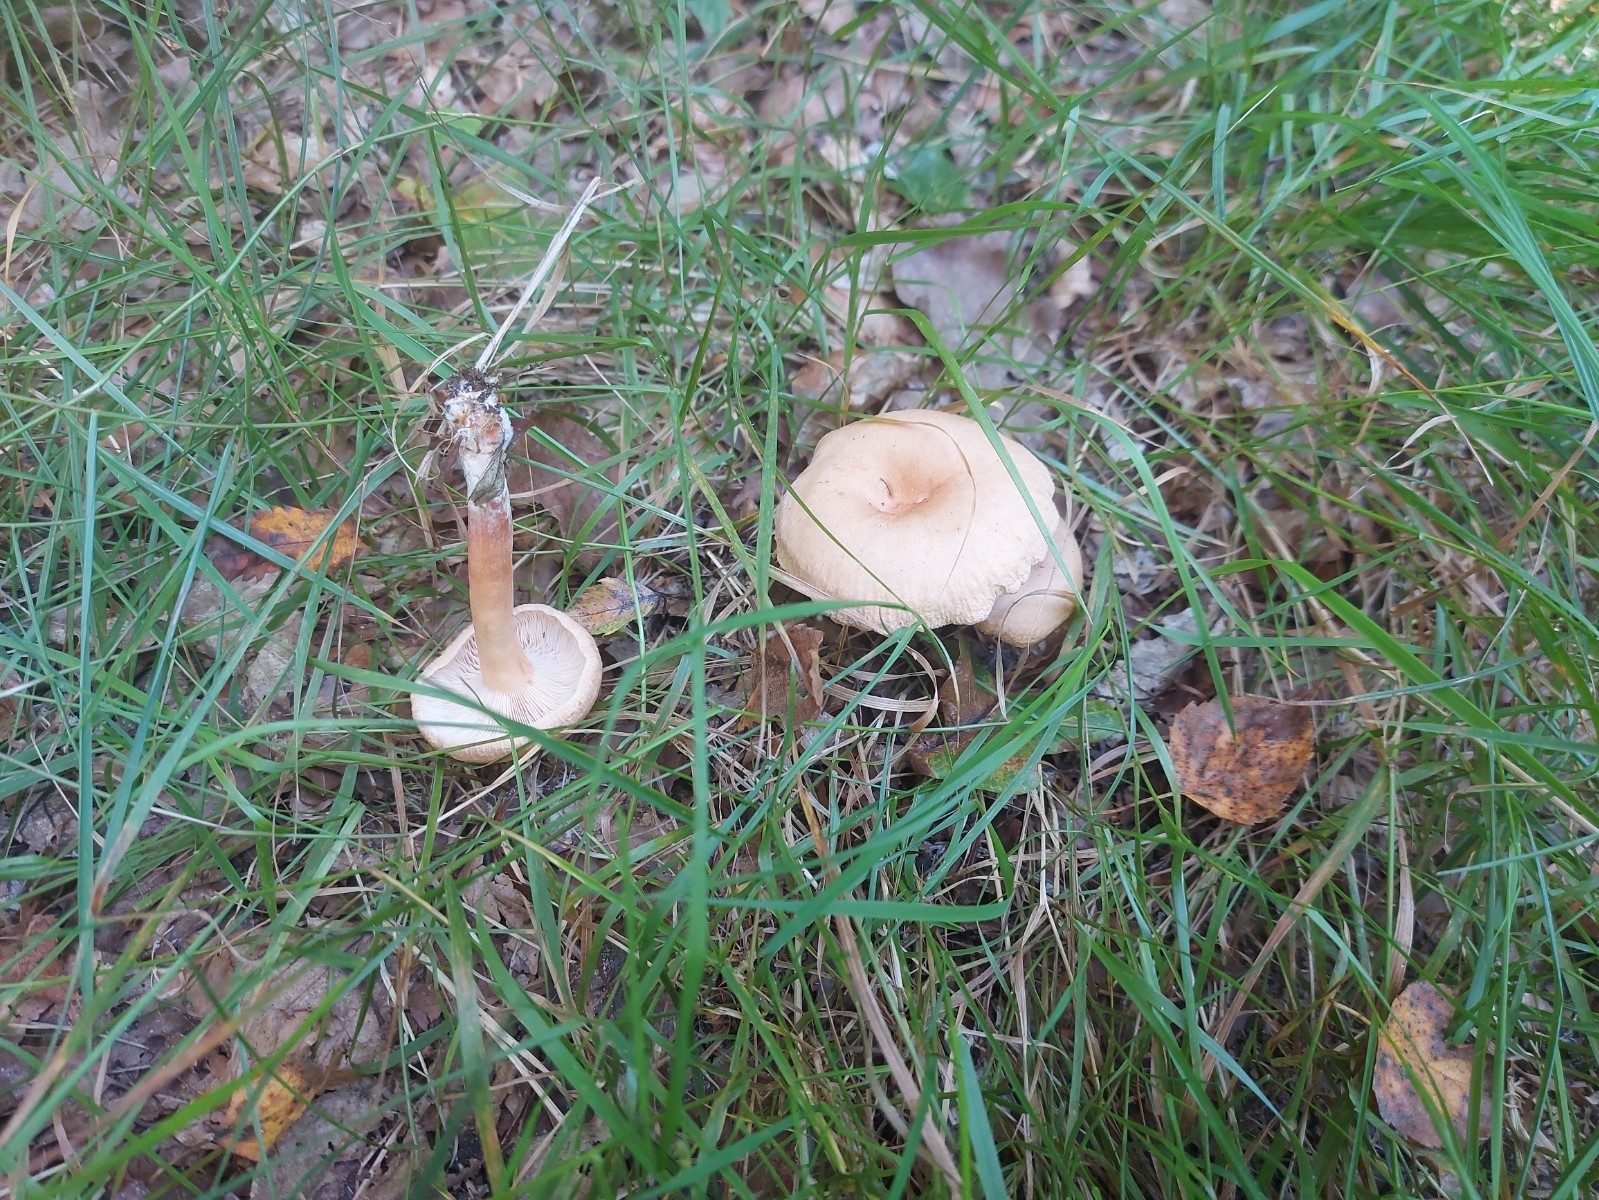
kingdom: Fungi
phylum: Basidiomycota
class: Agaricomycetes
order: Russulales
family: Russulaceae
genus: Lactarius
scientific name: Lactarius glyciosmus
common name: kokos-mælkehat
